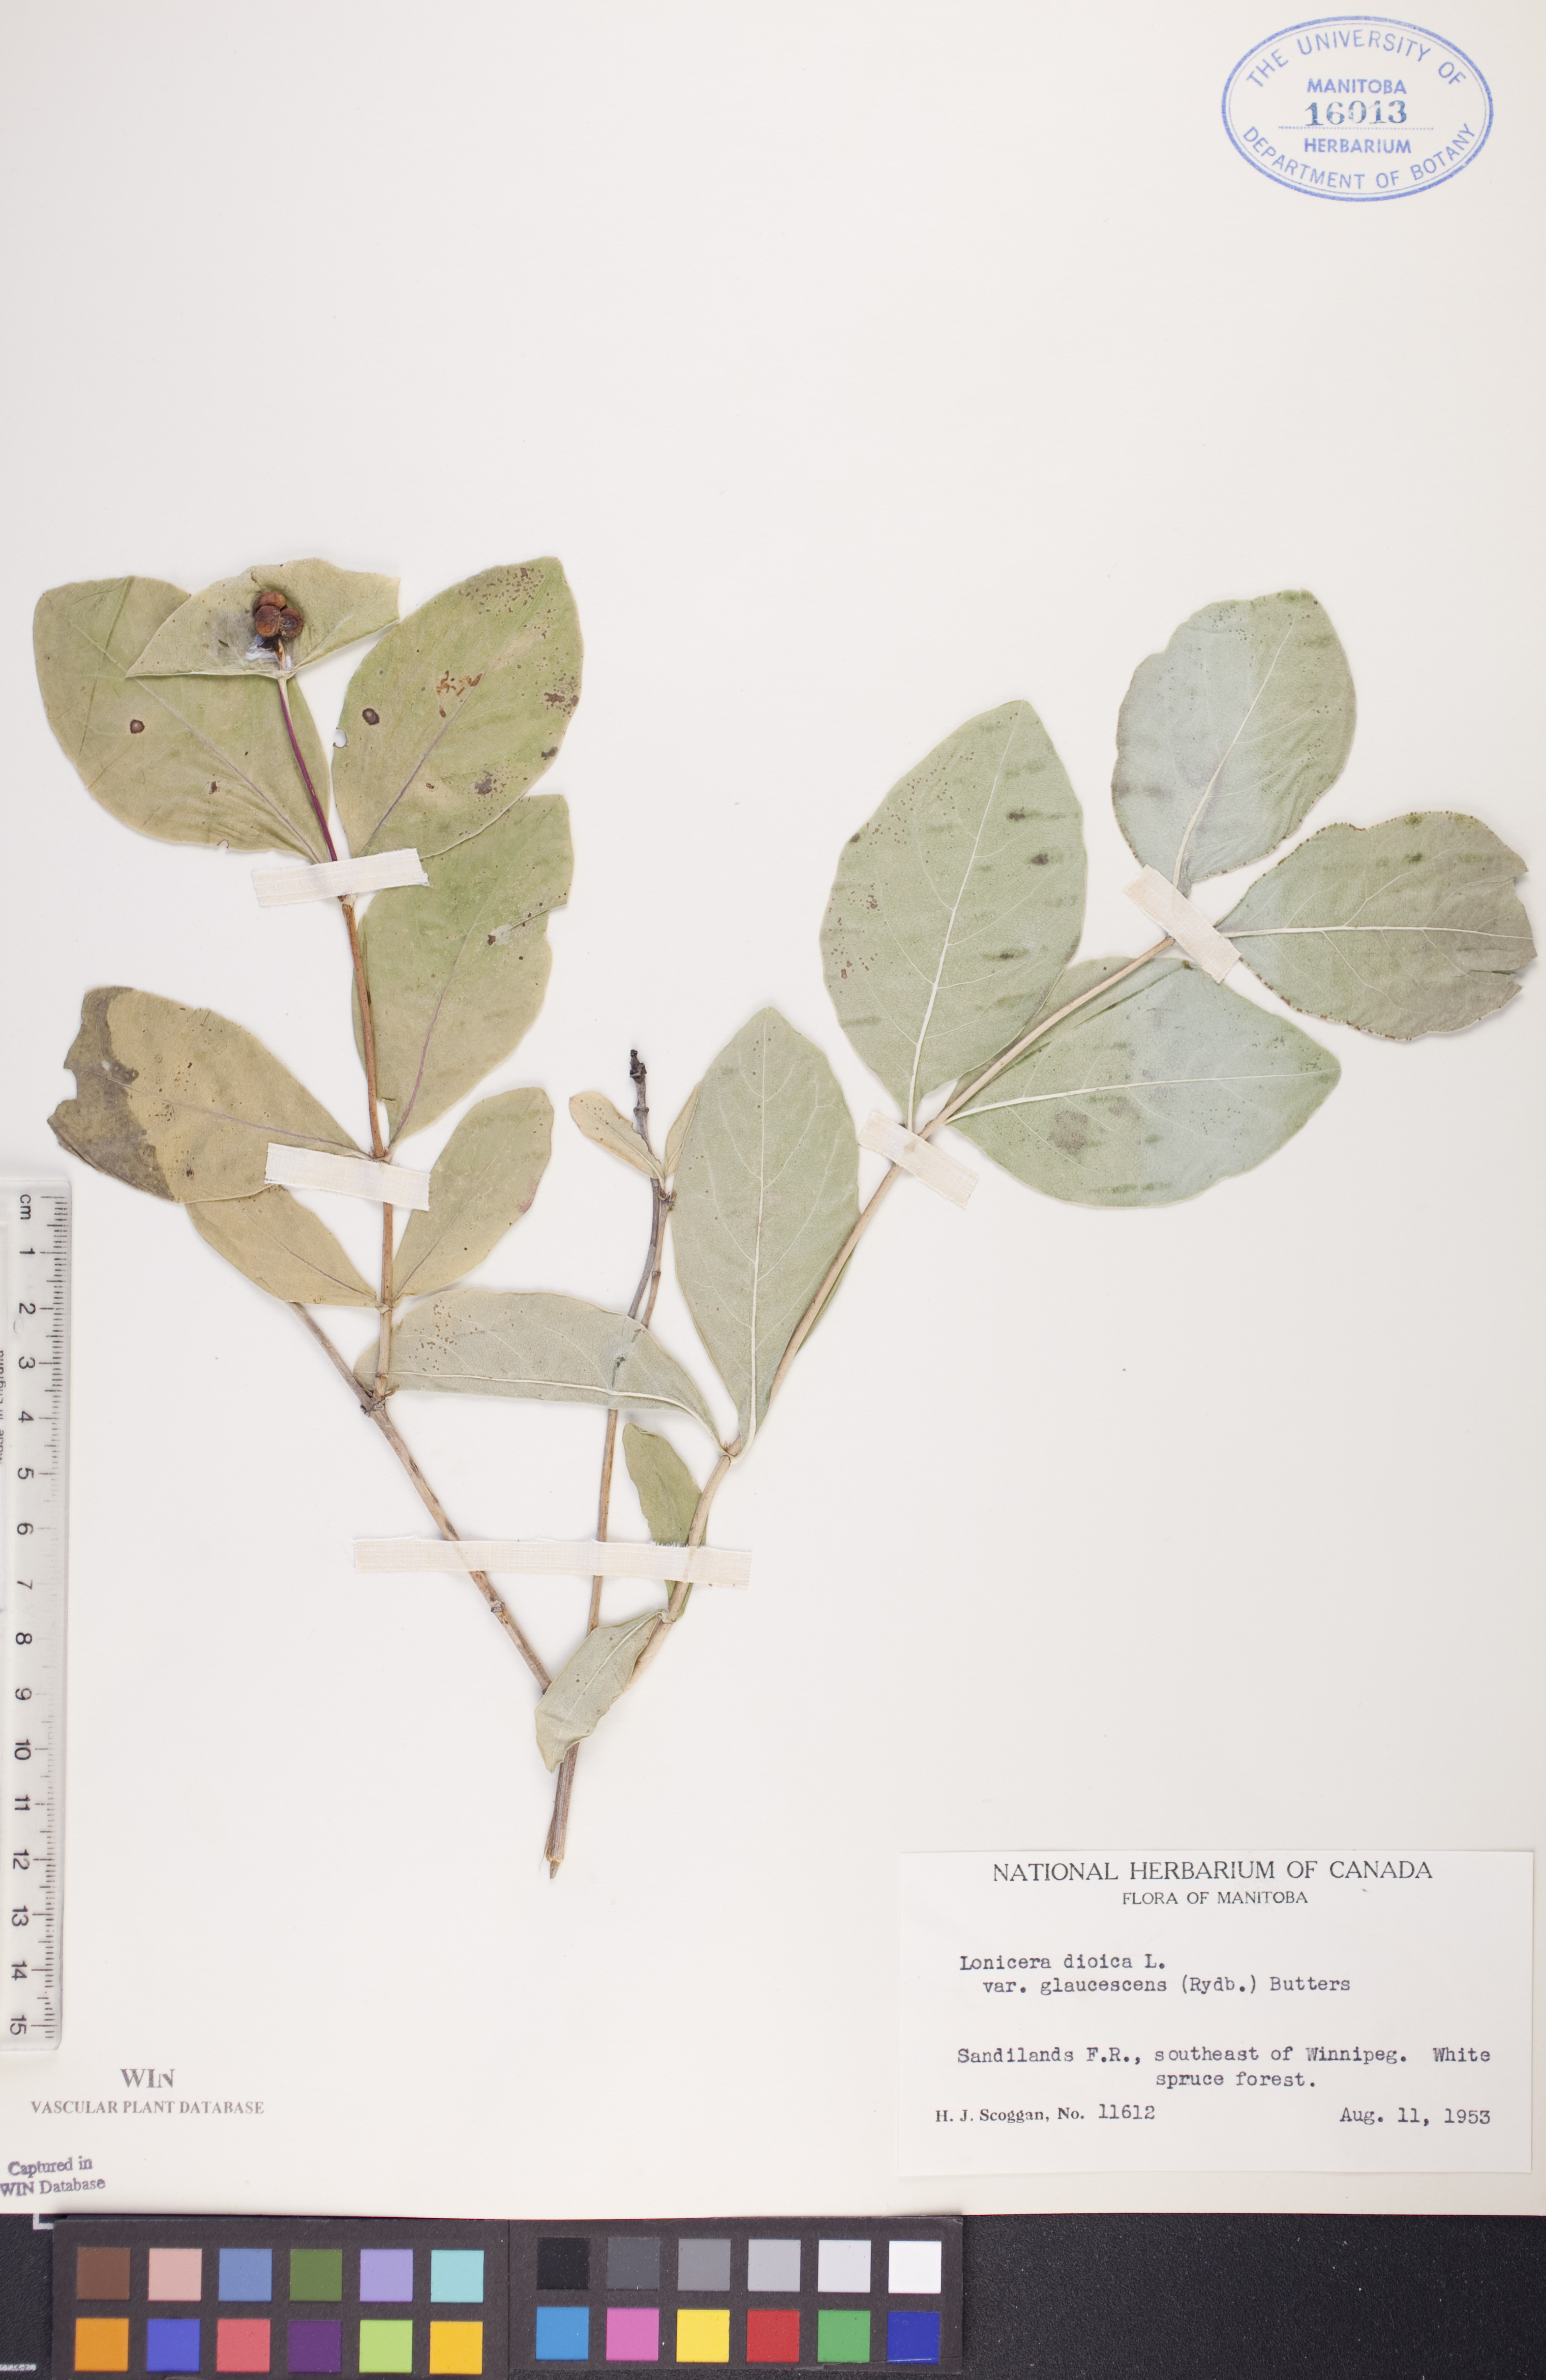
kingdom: Plantae
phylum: Tracheophyta
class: Magnoliopsida
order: Dipsacales
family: Caprifoliaceae
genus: Lonicera
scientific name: Lonicera dioica
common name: Limber honeysuckle
